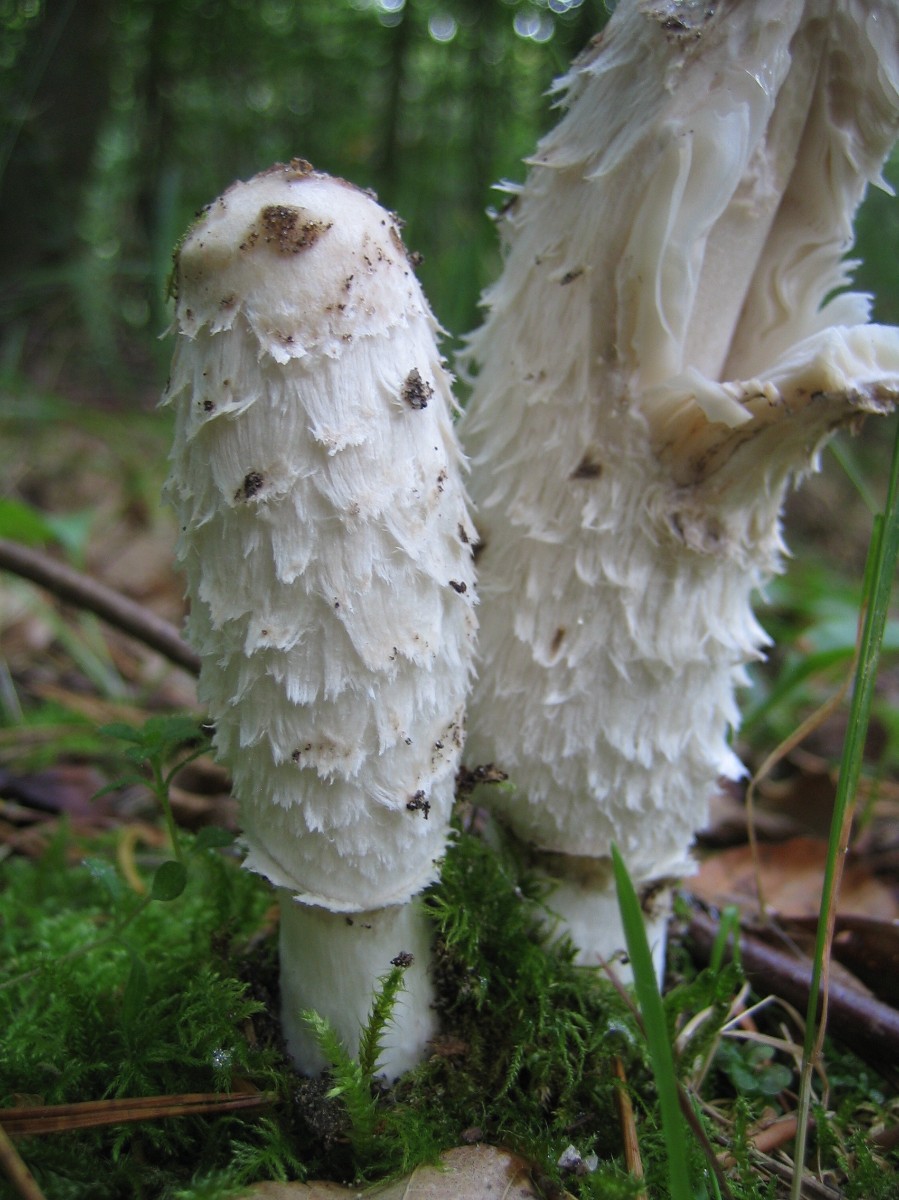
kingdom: Fungi
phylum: Basidiomycota
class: Agaricomycetes
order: Agaricales
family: Agaricaceae
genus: Coprinus
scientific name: Coprinus comatus
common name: stor parykhat
